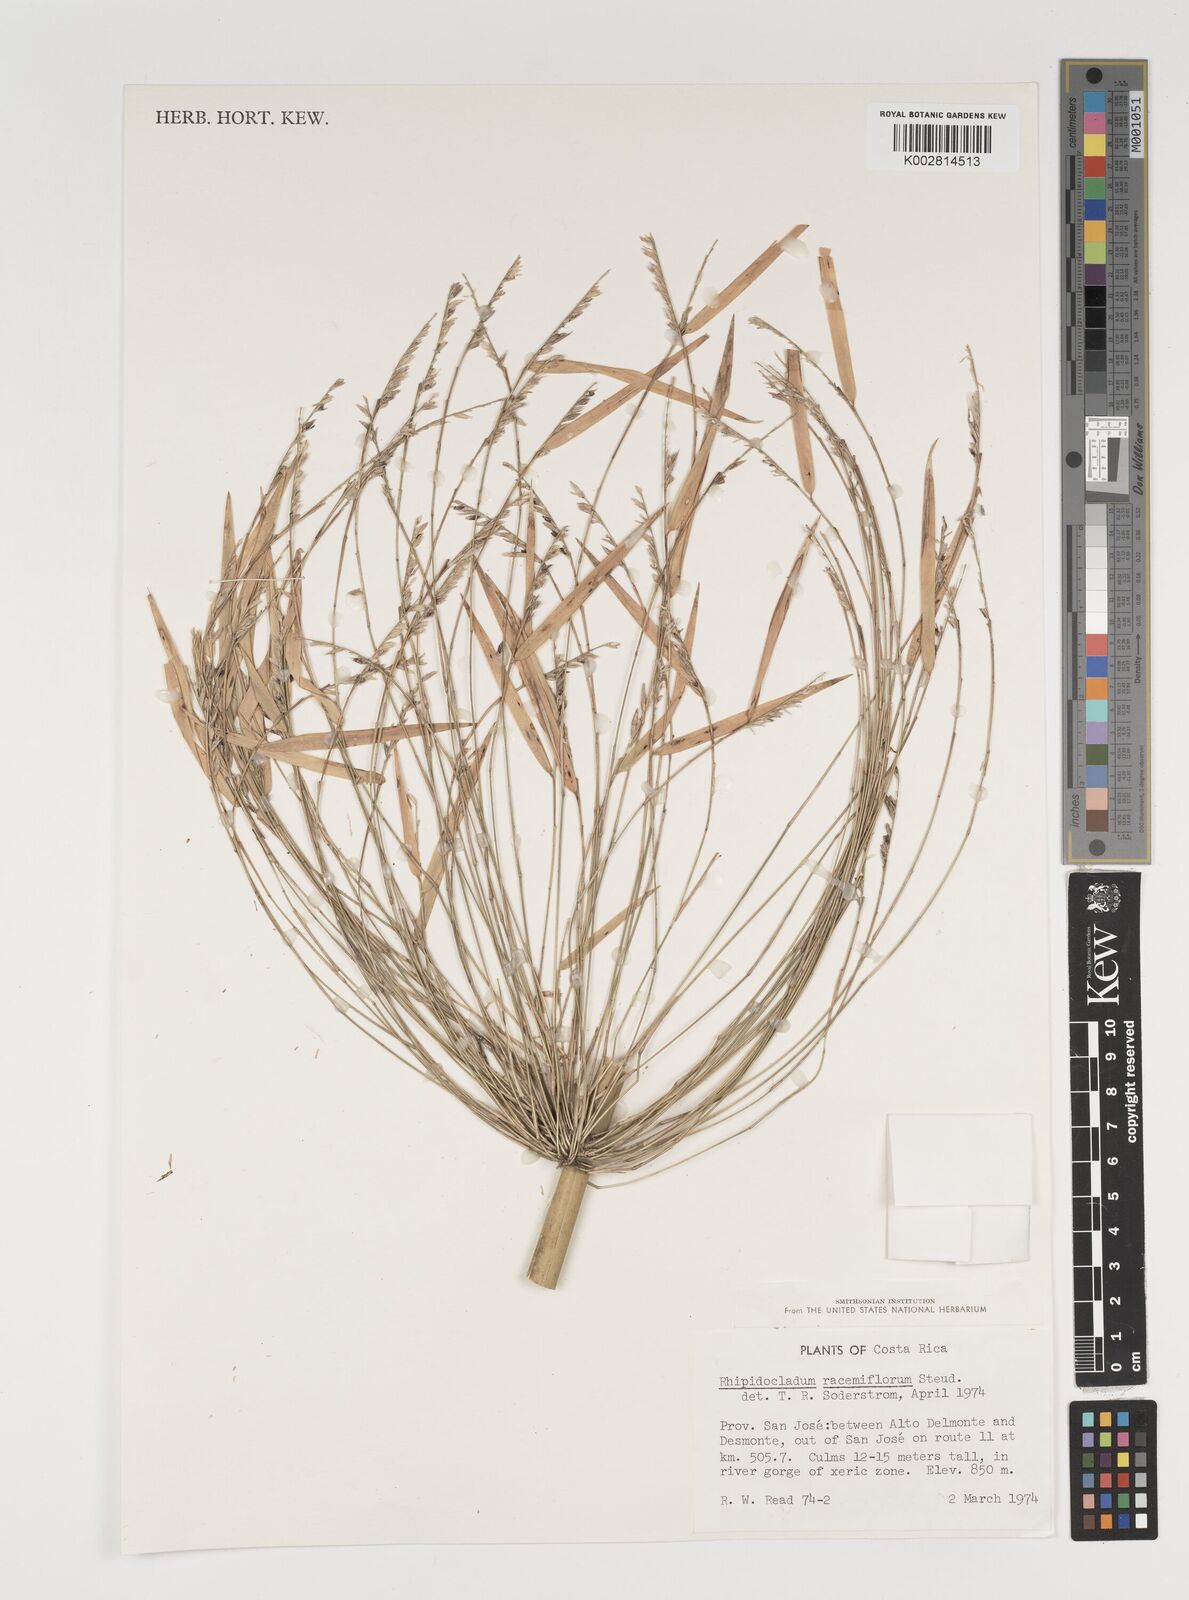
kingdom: Plantae
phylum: Tracheophyta
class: Liliopsida
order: Poales
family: Poaceae
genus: Rhipidocladum
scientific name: Rhipidocladum racemiflorum
